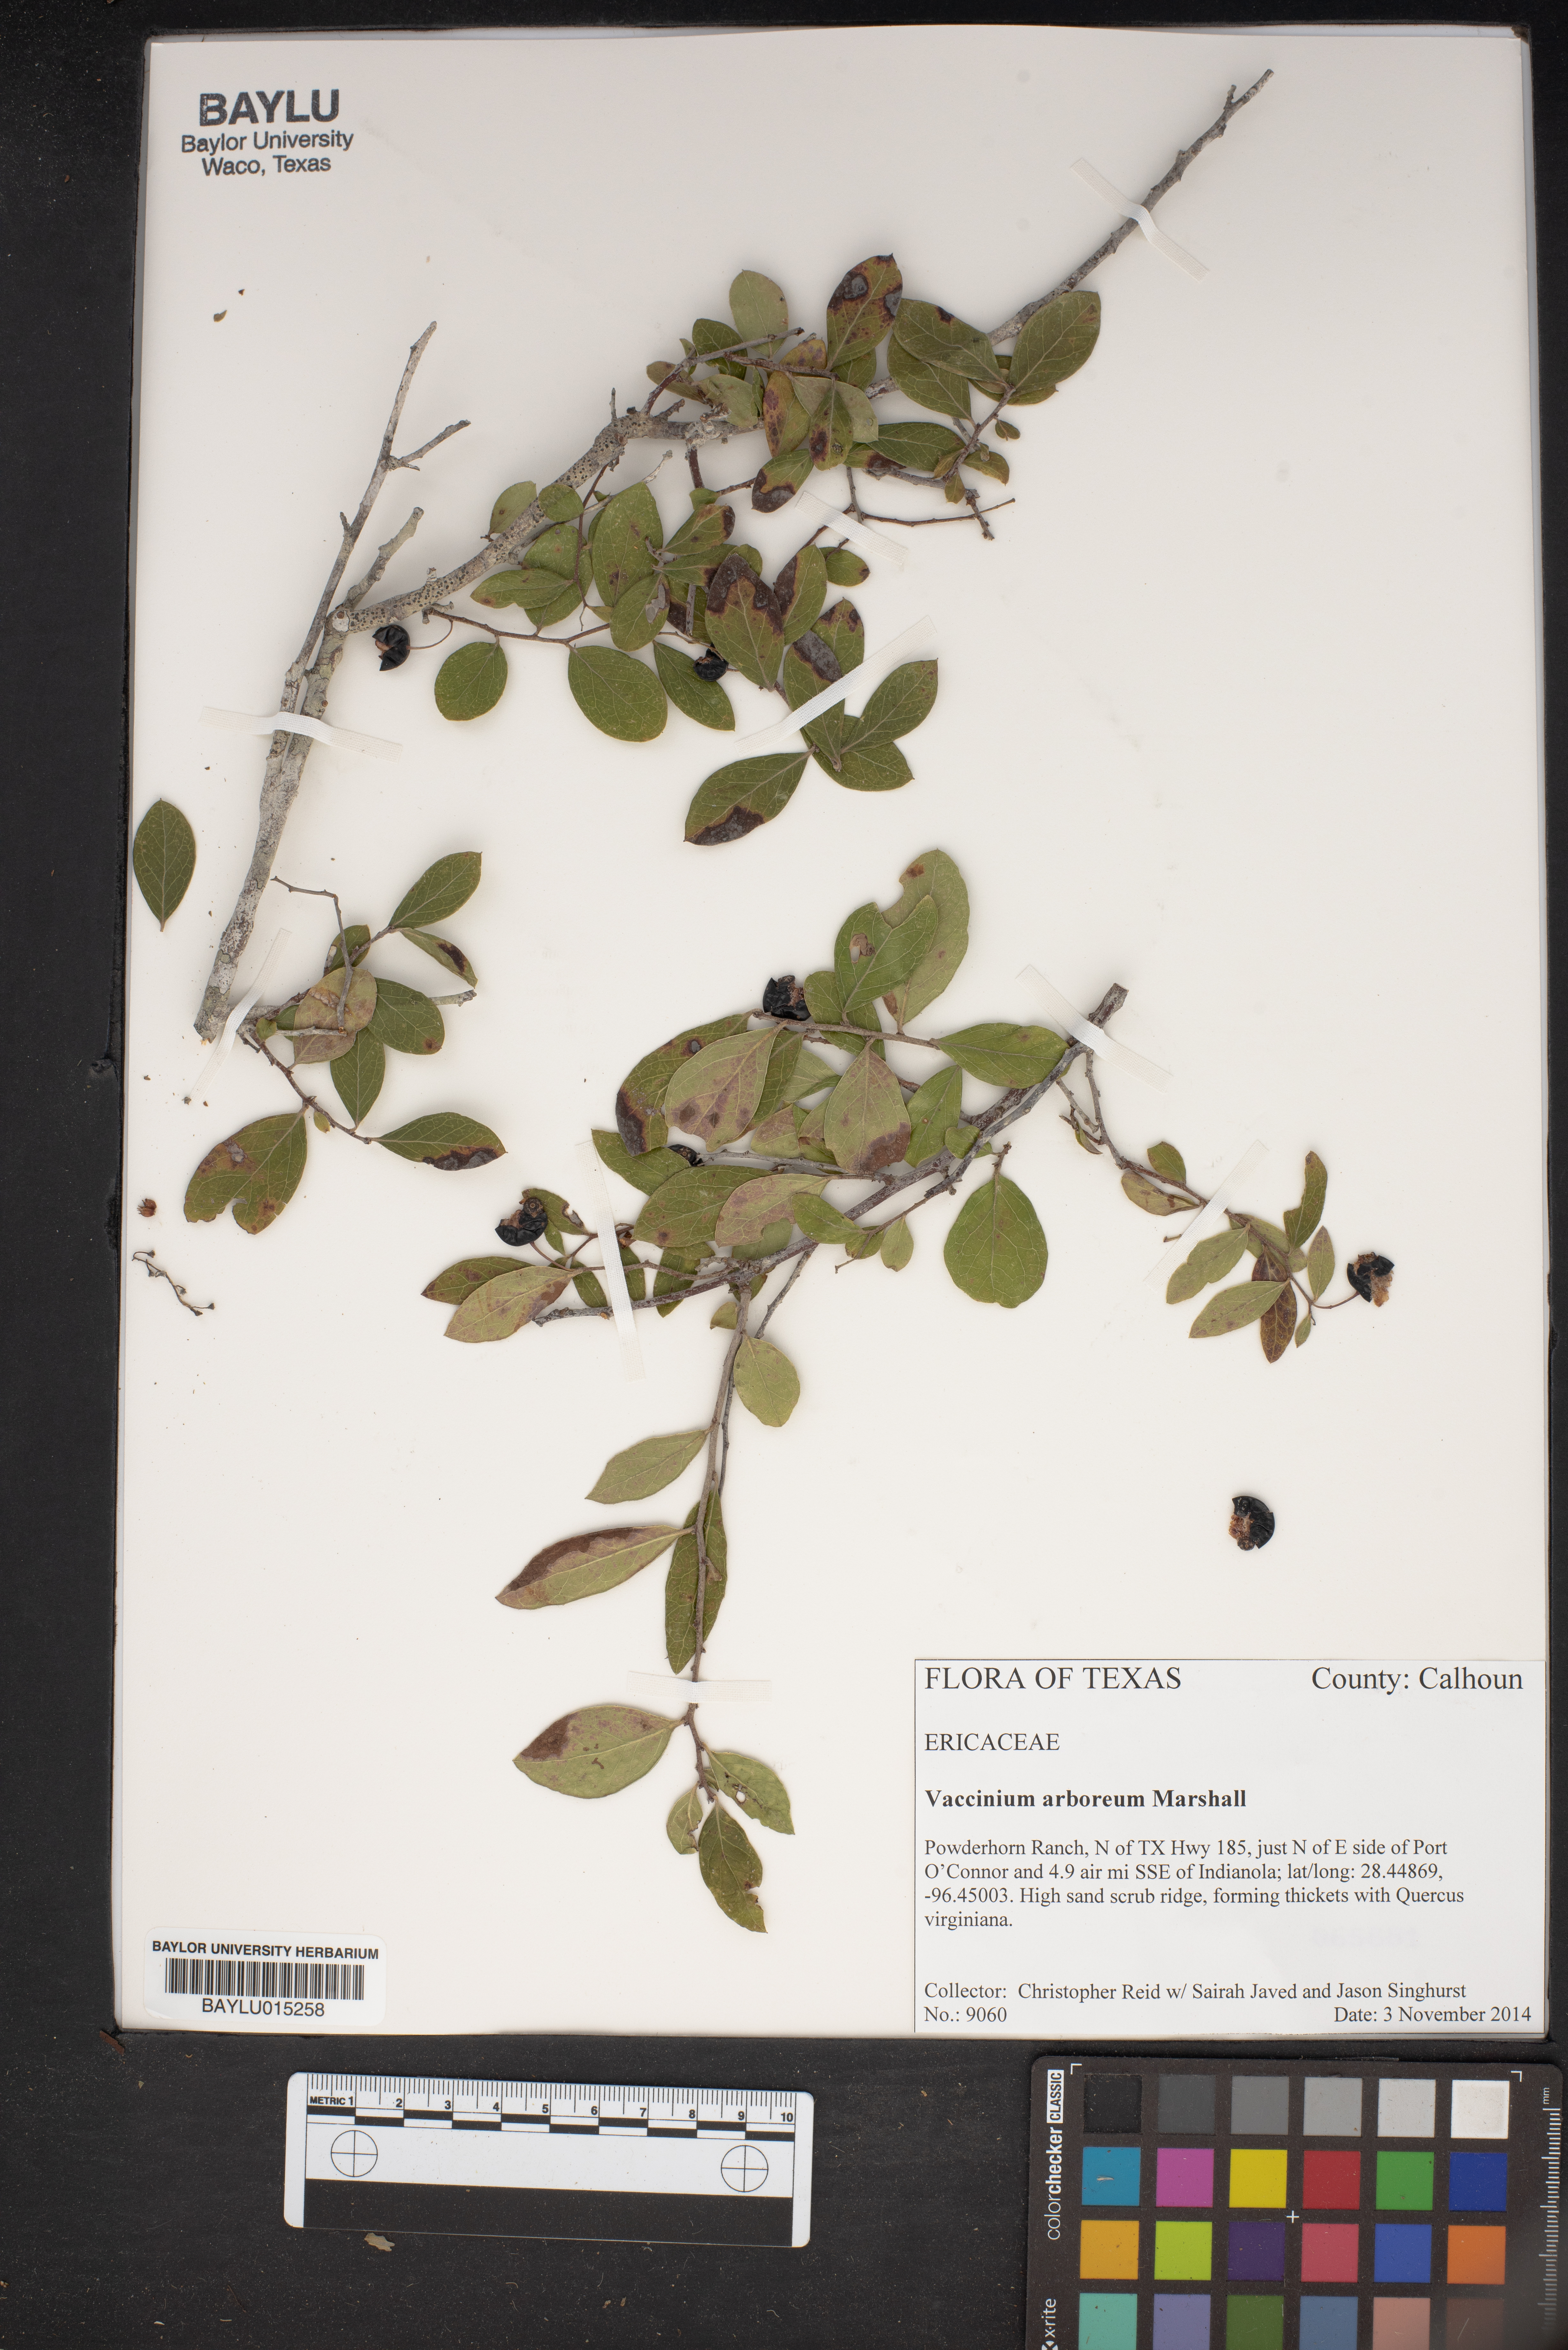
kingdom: Plantae
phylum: Tracheophyta
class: Magnoliopsida
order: Ericales
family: Ericaceae
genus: Vaccinium
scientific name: Vaccinium arboreum
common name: Farkleberry
